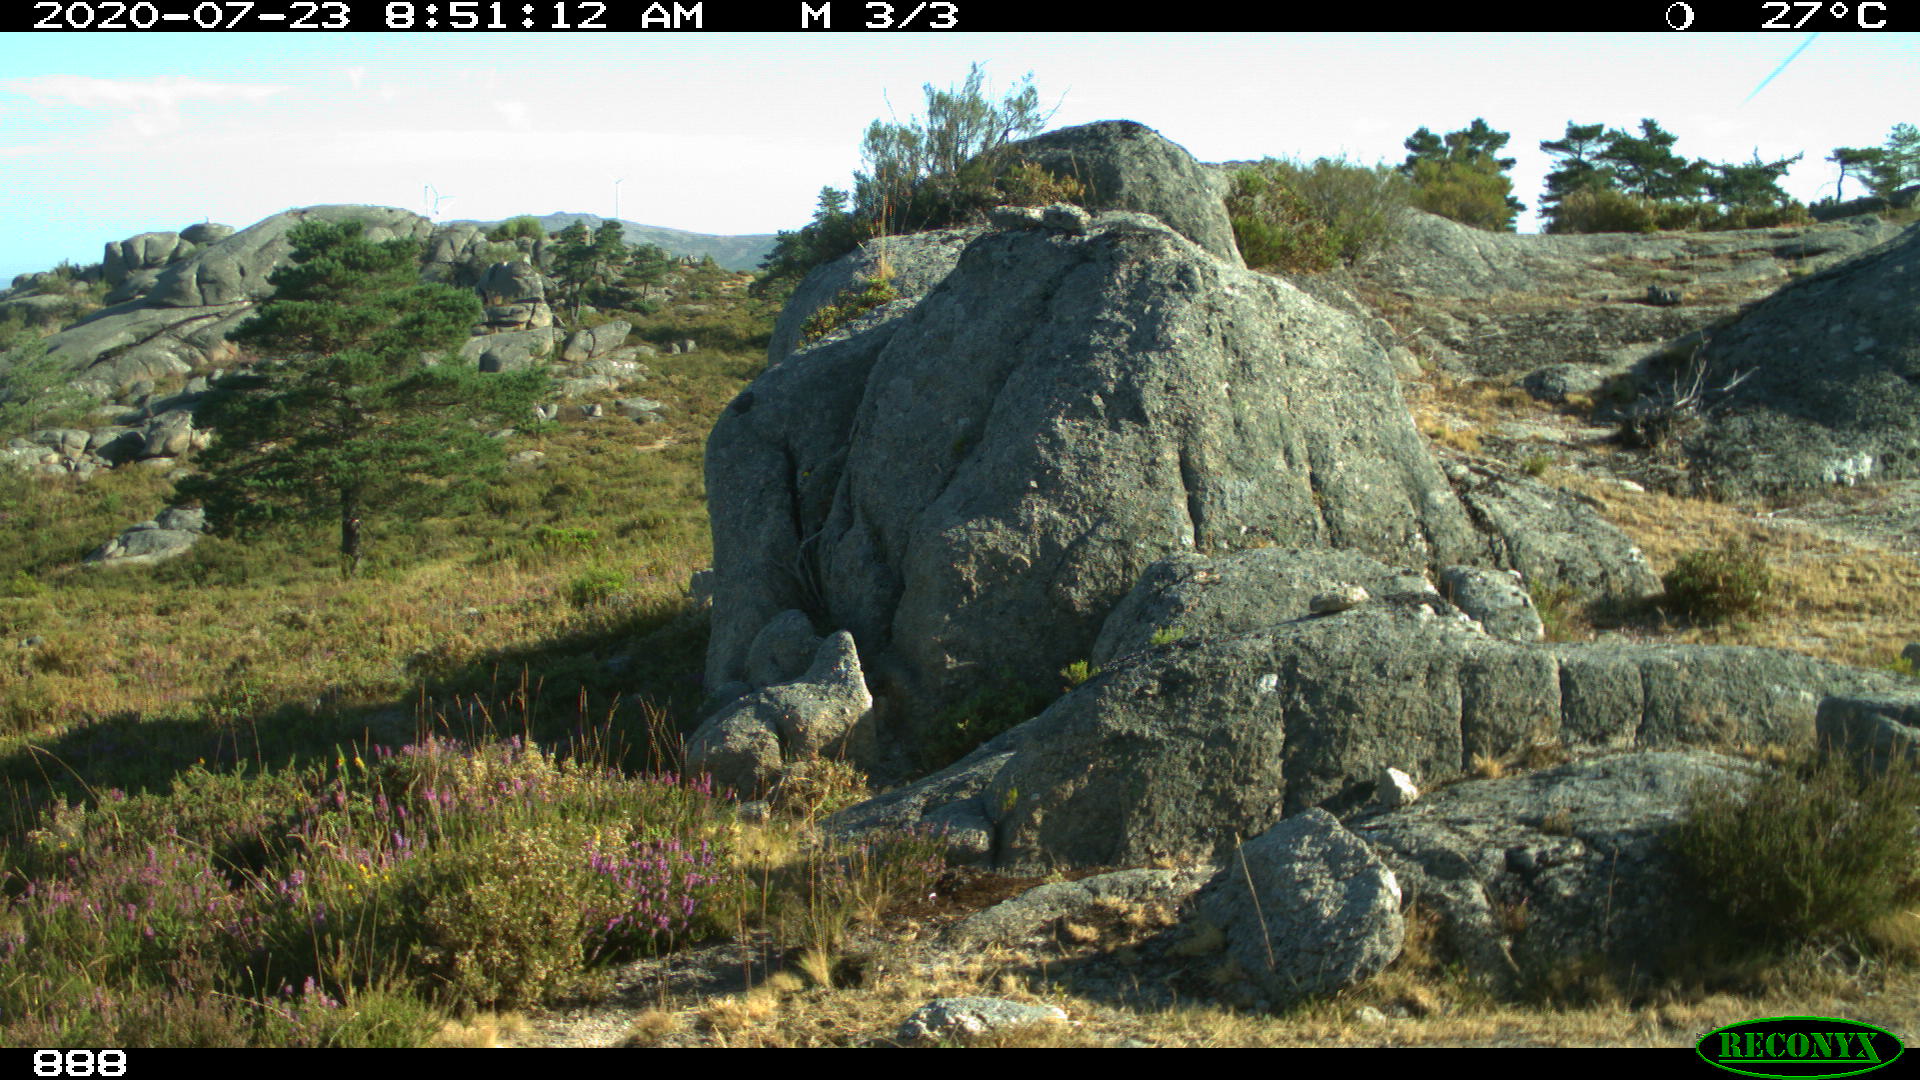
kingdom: Animalia
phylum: Chordata
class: Mammalia
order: Perissodactyla
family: Equidae
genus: Equus
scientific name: Equus caballus
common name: Horse
